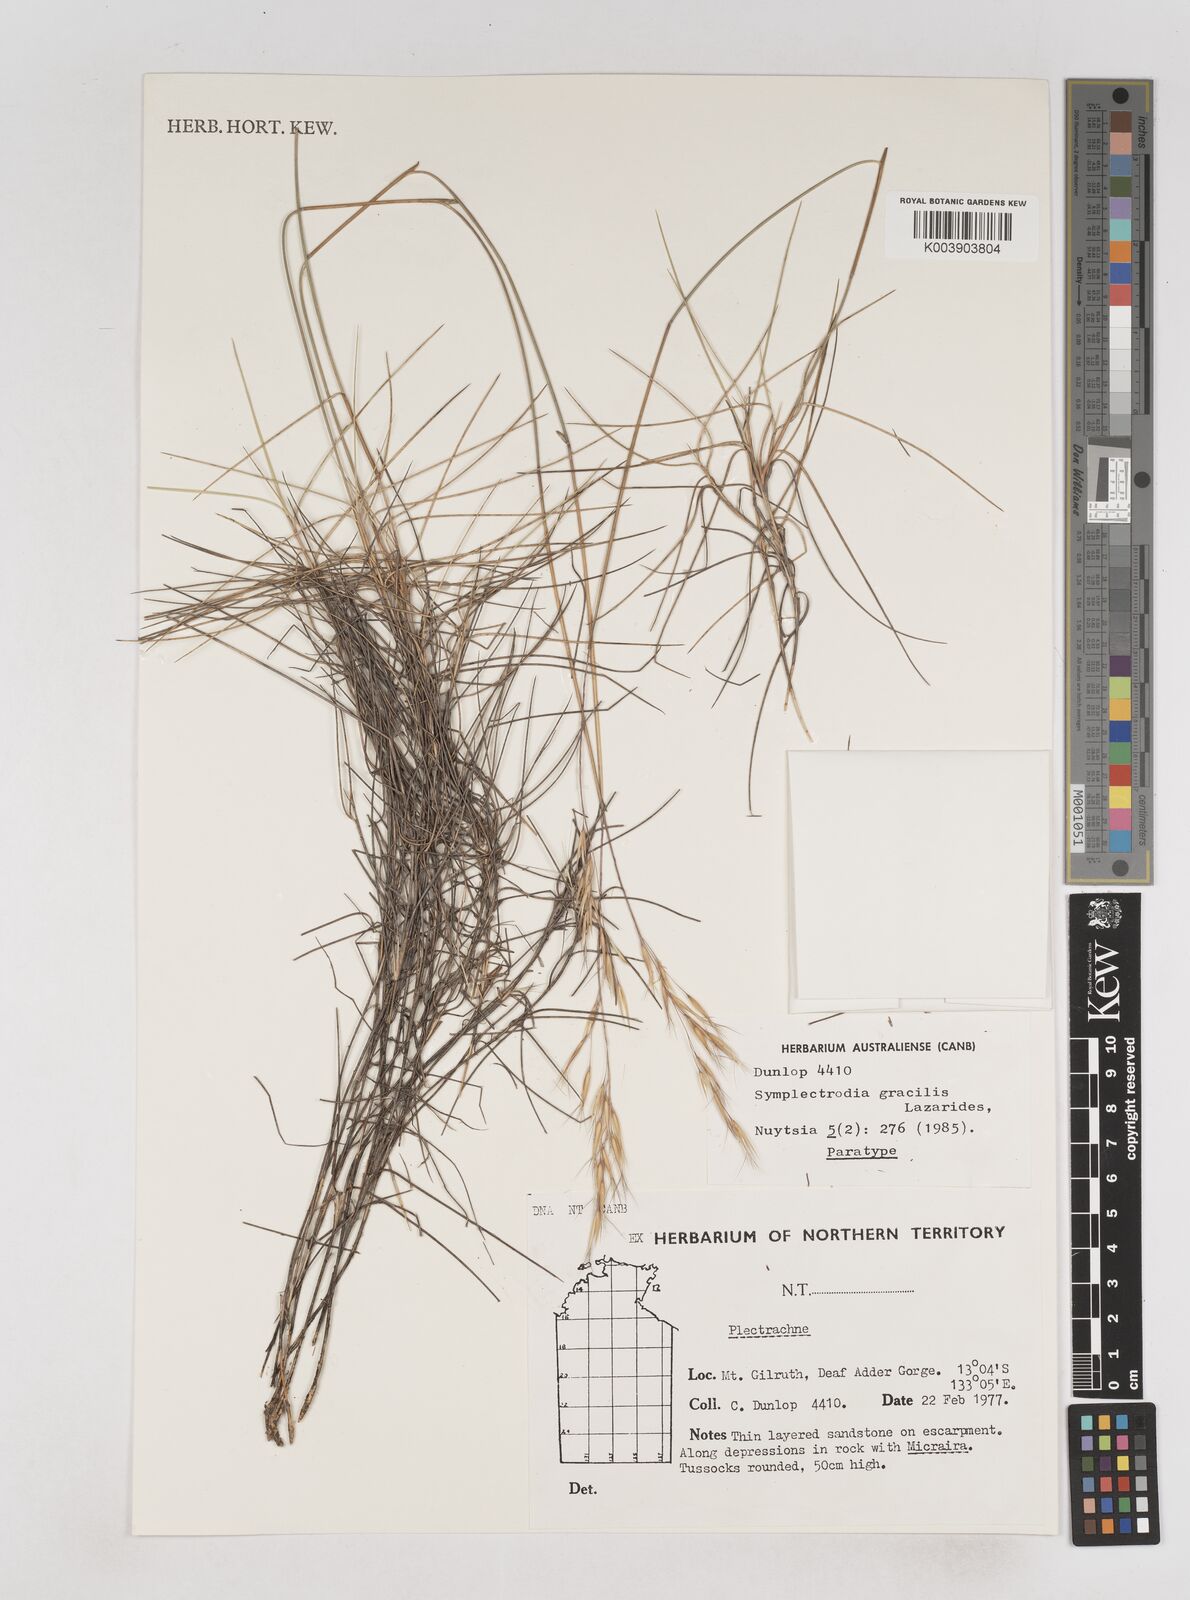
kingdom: Plantae
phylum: Tracheophyta
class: Liliopsida
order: Poales
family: Poaceae
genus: Triodia
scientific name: Triodia gracilis
